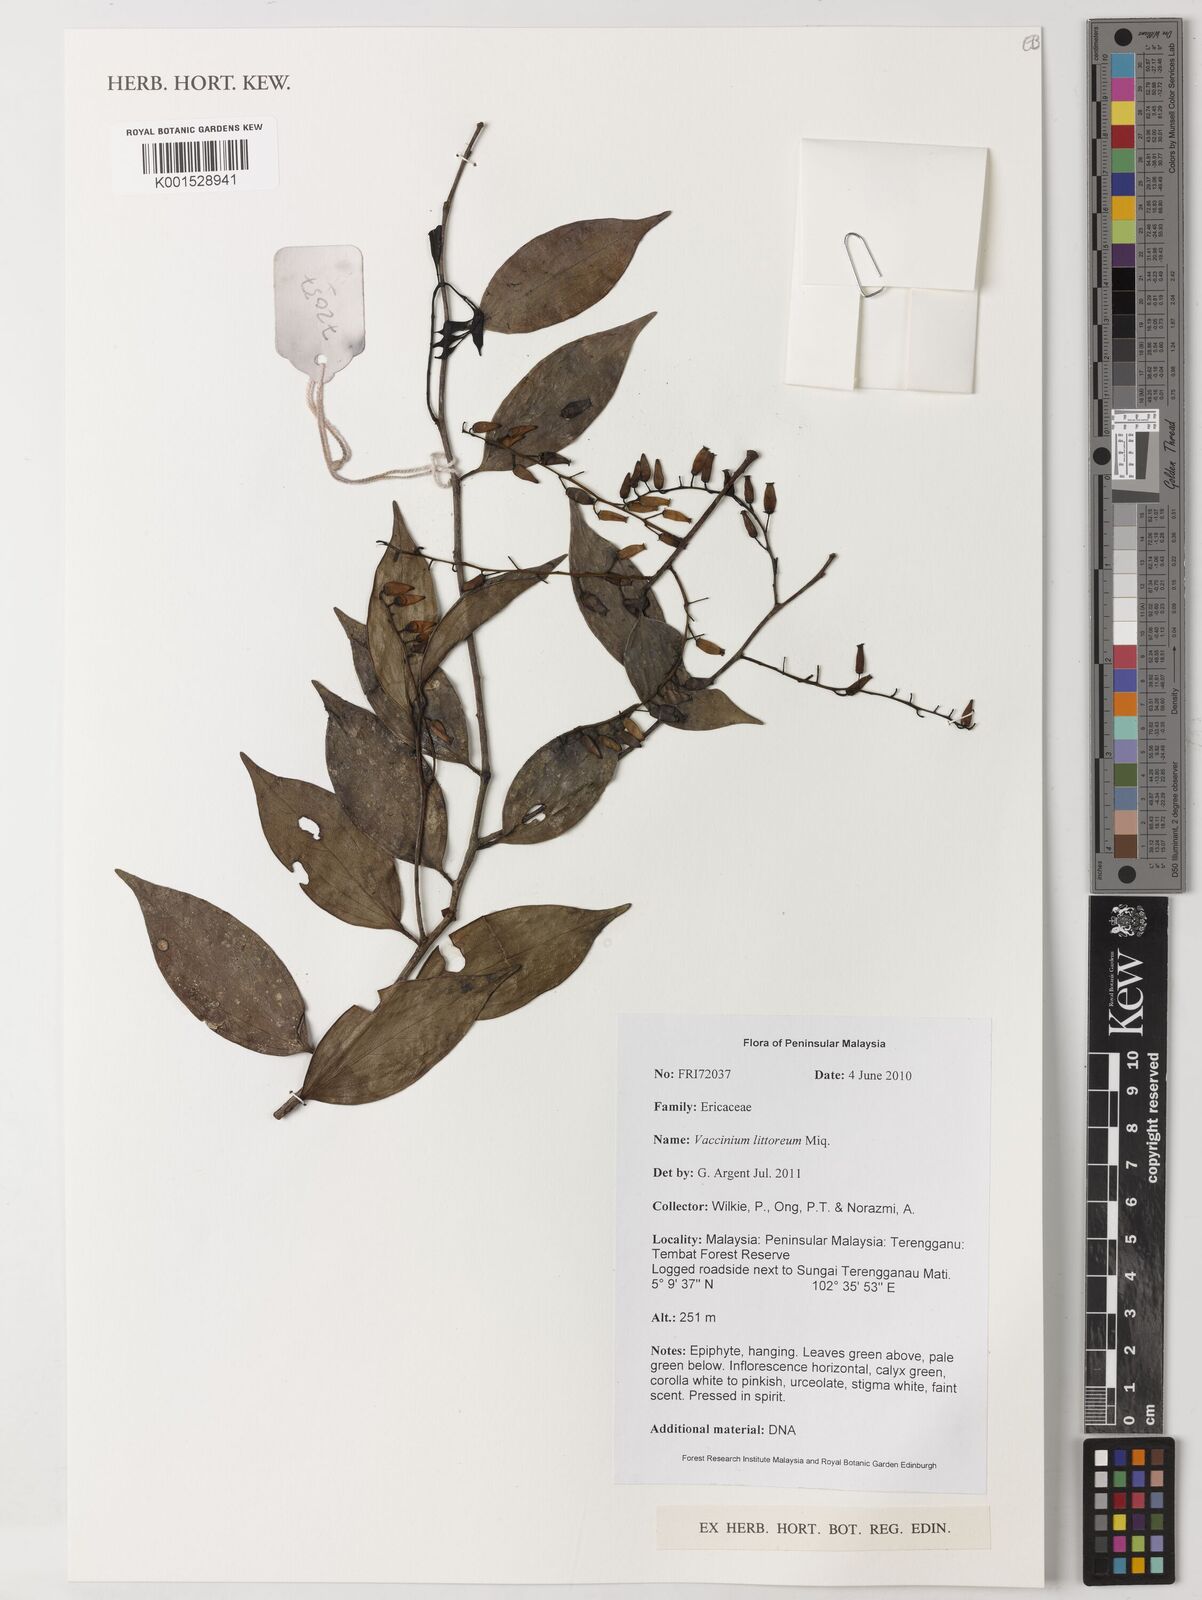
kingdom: Plantae
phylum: Tracheophyta
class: Magnoliopsida
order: Ericales
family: Ericaceae
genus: Vaccinium
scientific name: Vaccinium littoreum
